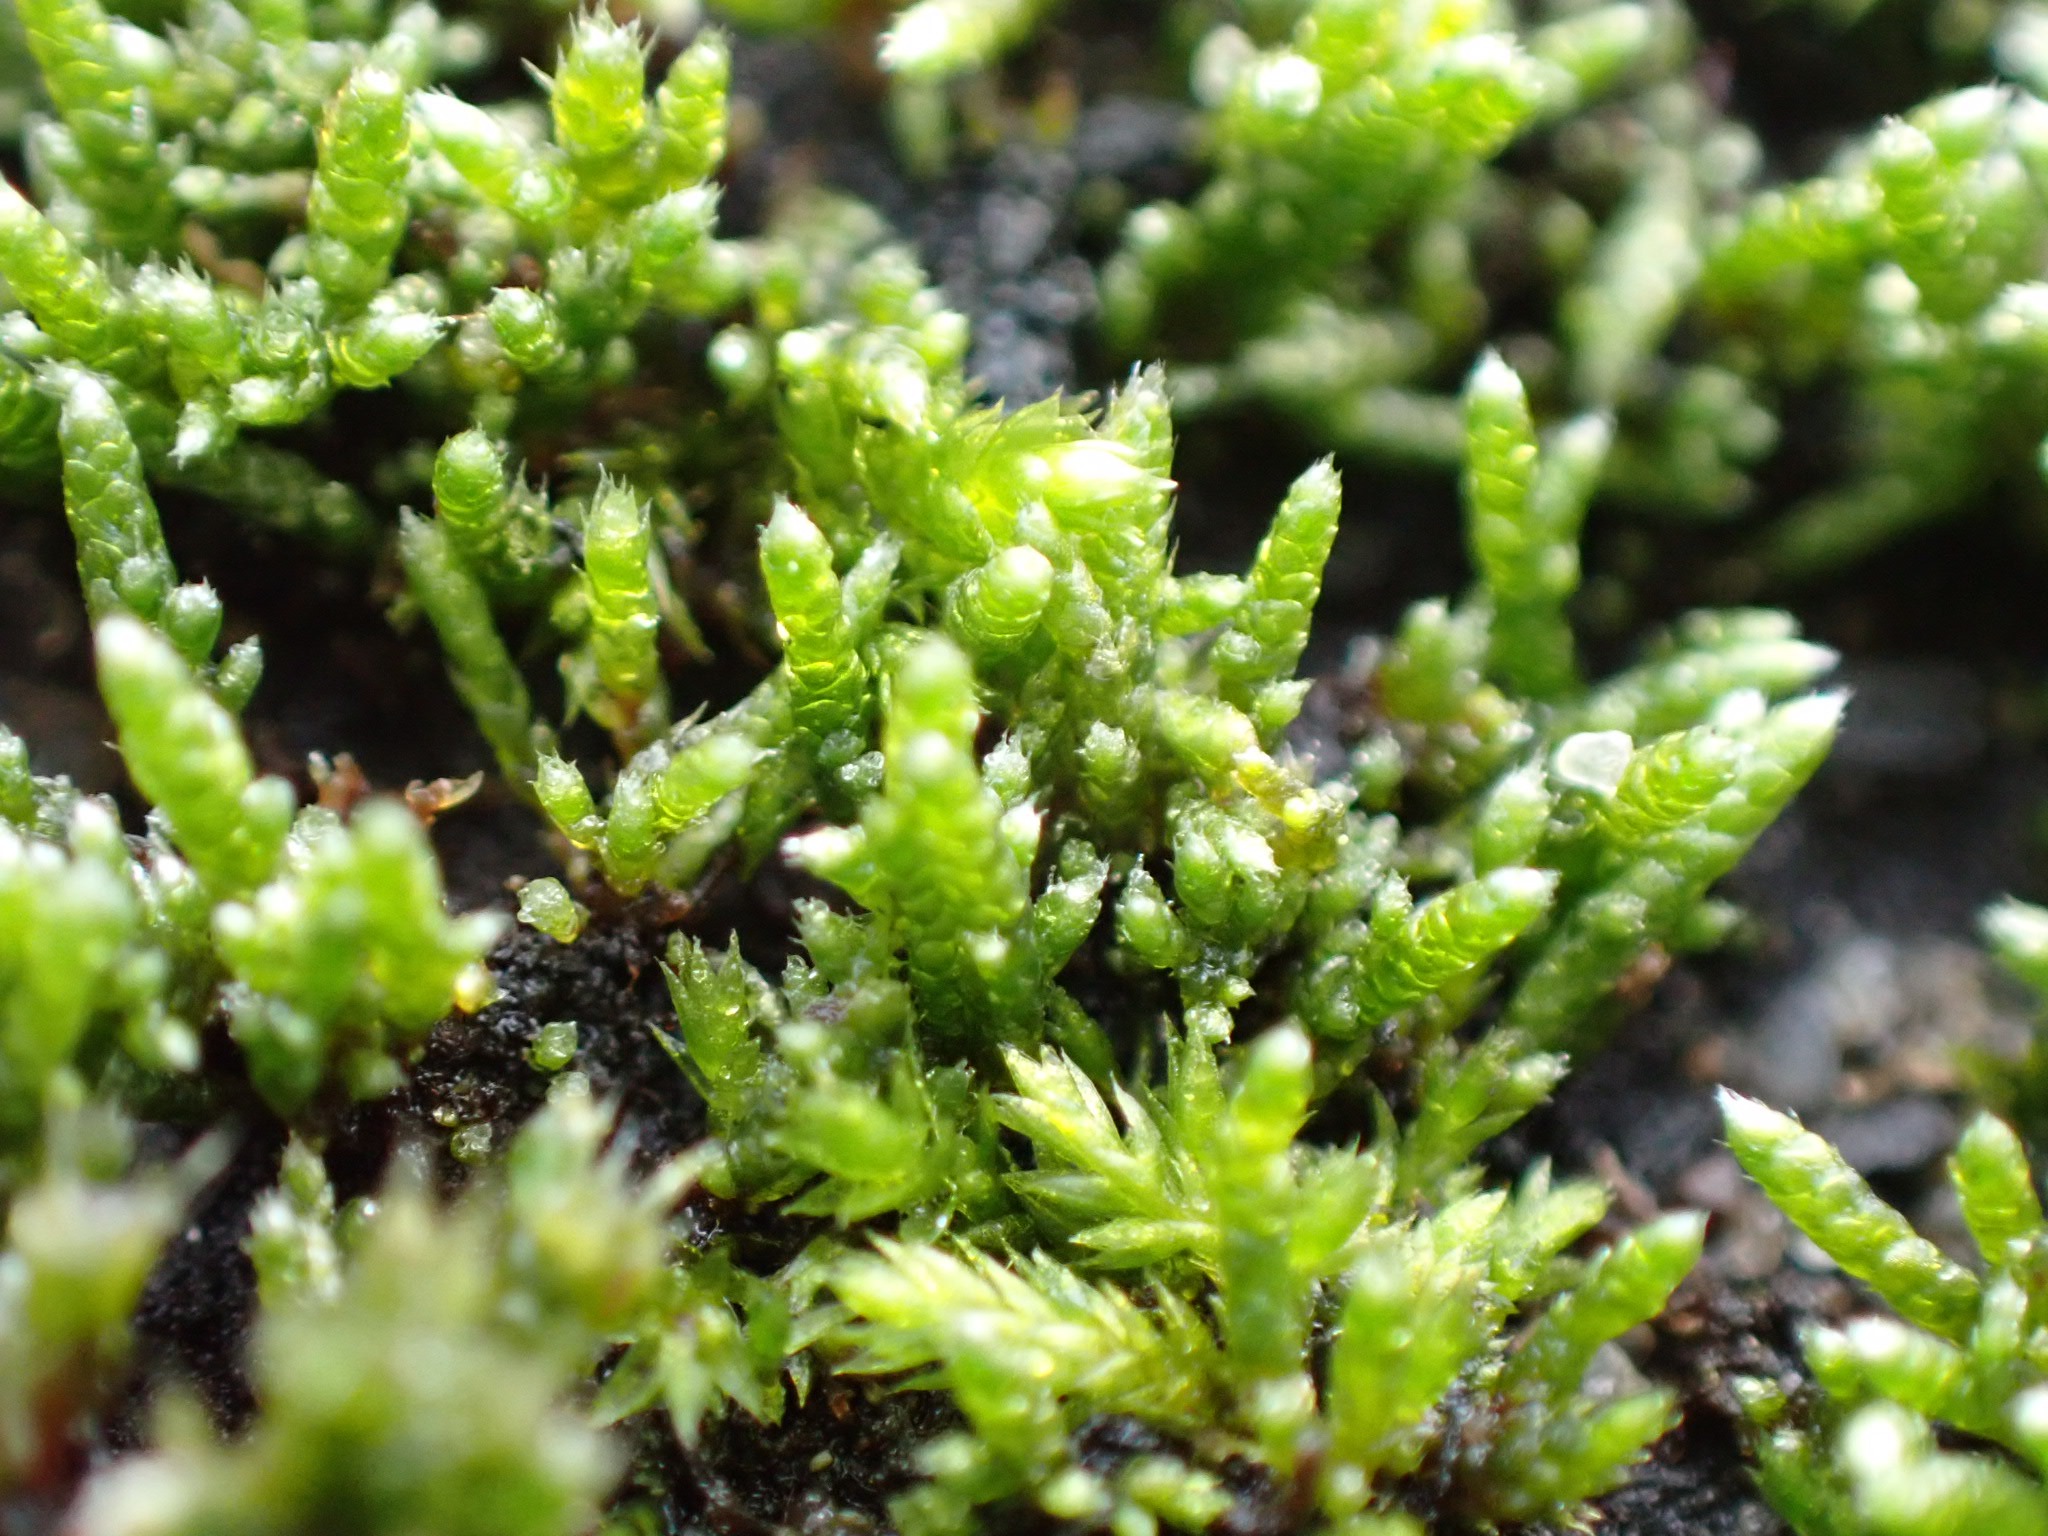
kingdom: Plantae
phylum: Bryophyta
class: Bryopsida
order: Bryales
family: Bryaceae
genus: Bryum
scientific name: Bryum argenteum
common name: Sølv-bryum
